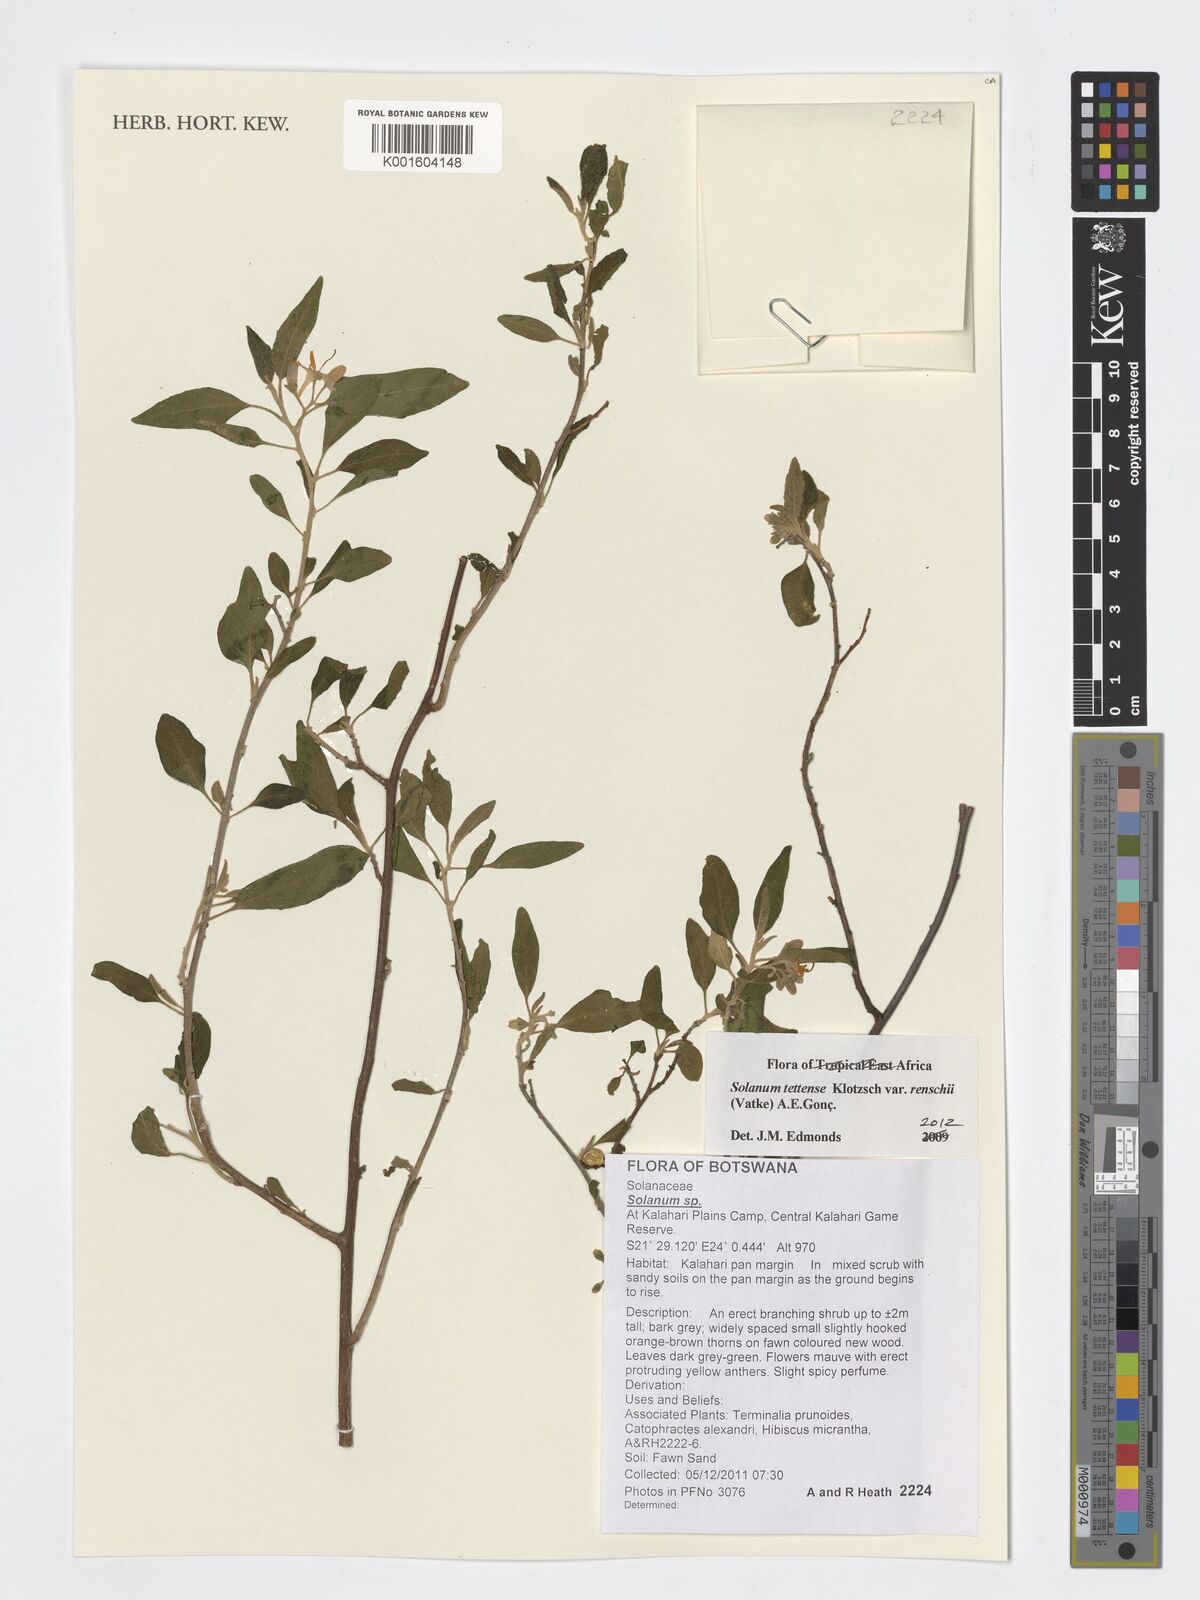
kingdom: Plantae
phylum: Tracheophyta
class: Magnoliopsida
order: Solanales
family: Solanaceae
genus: Solanum
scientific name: Solanum tettense
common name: Mozambique bitter apple
